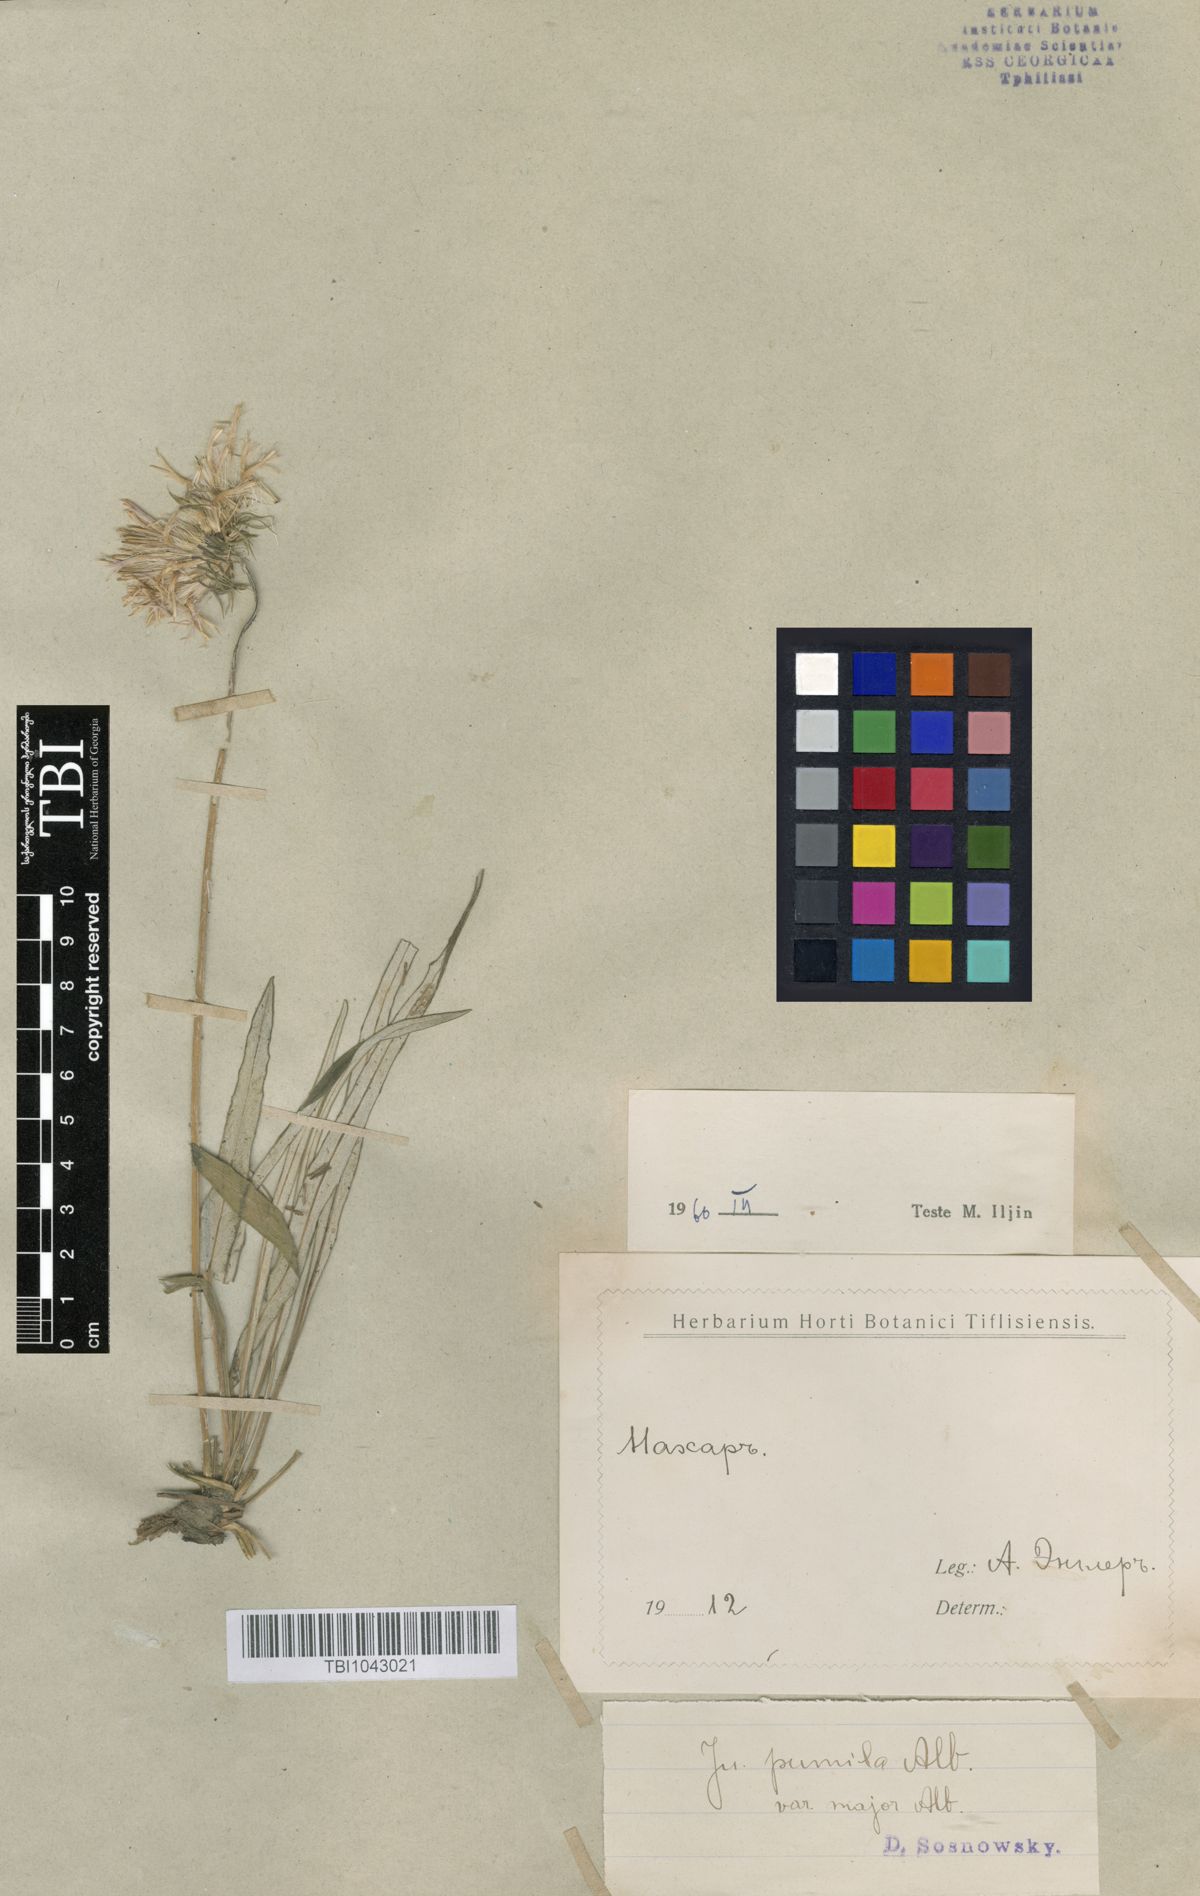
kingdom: Plantae
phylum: Tracheophyta
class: Magnoliopsida
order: Asterales
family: Asteraceae
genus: Jurinea
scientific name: Jurinea pumila
